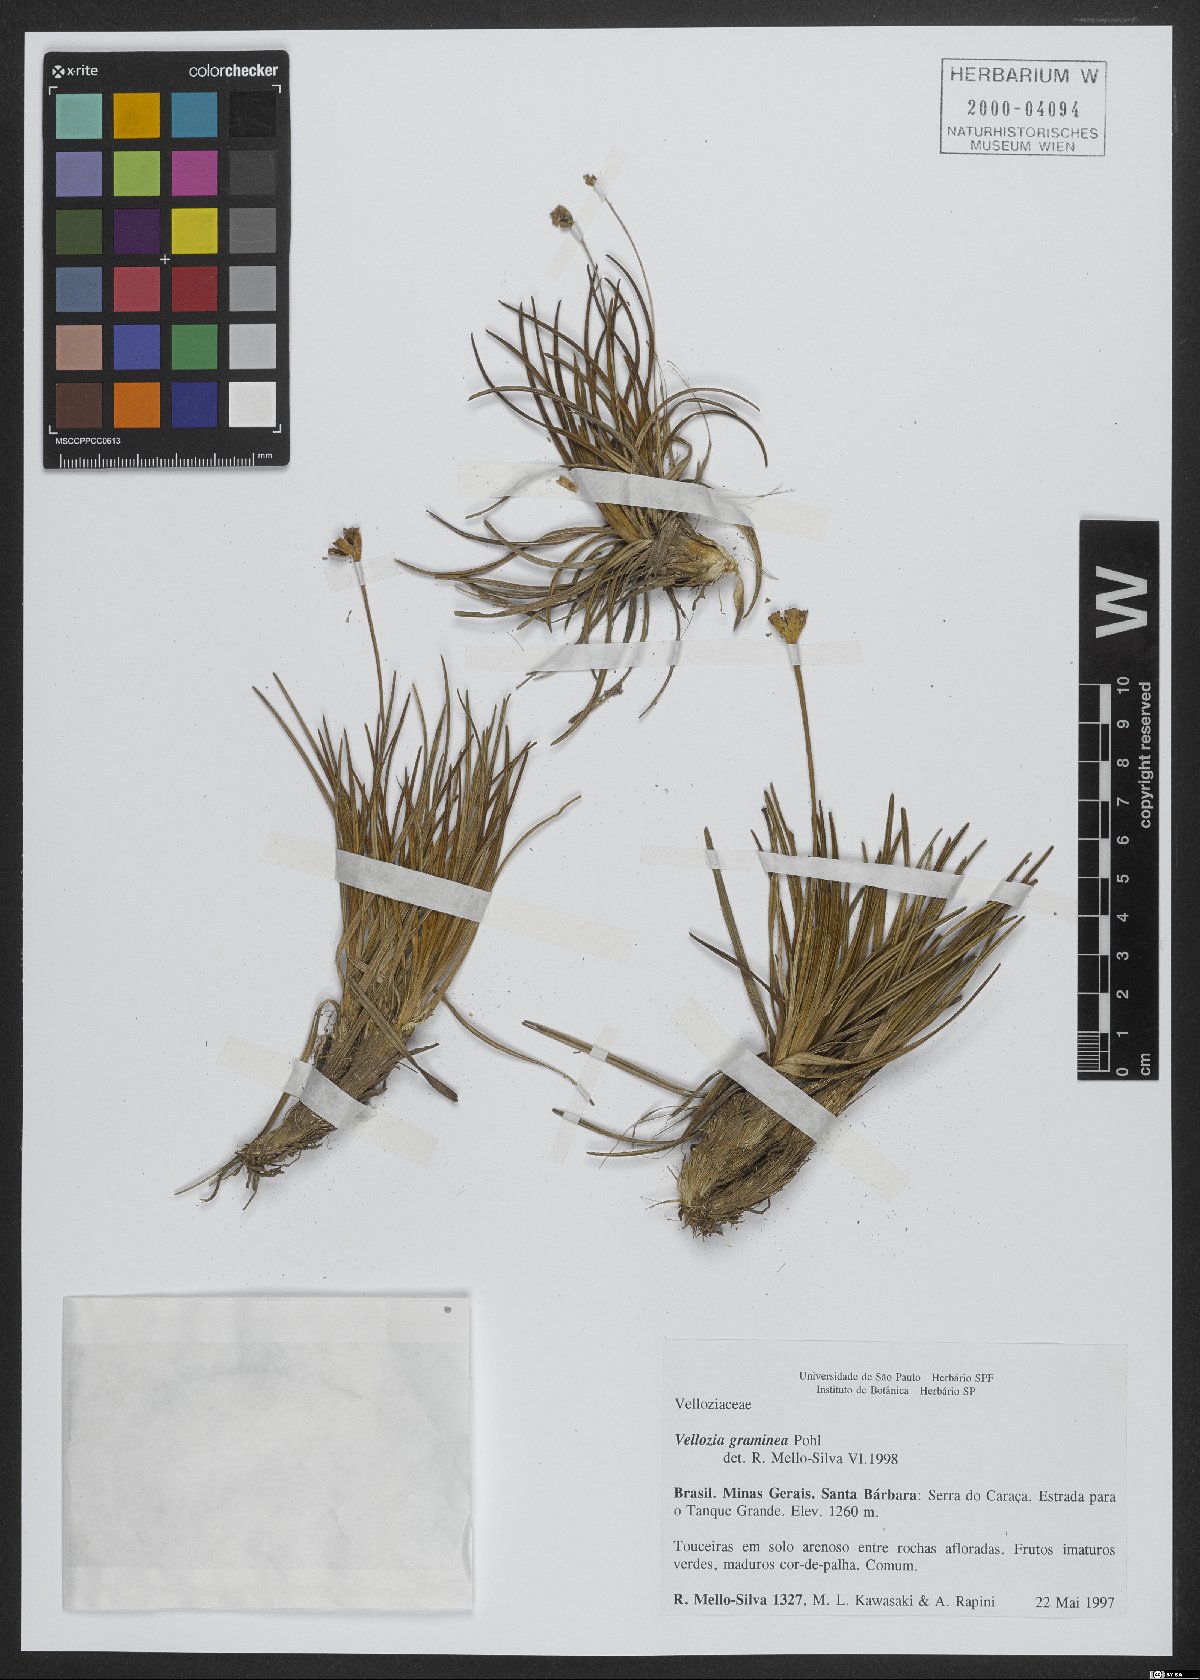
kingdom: Plantae
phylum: Tracheophyta
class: Liliopsida
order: Pandanales
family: Velloziaceae
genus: Vellozia
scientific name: Vellozia graminea
